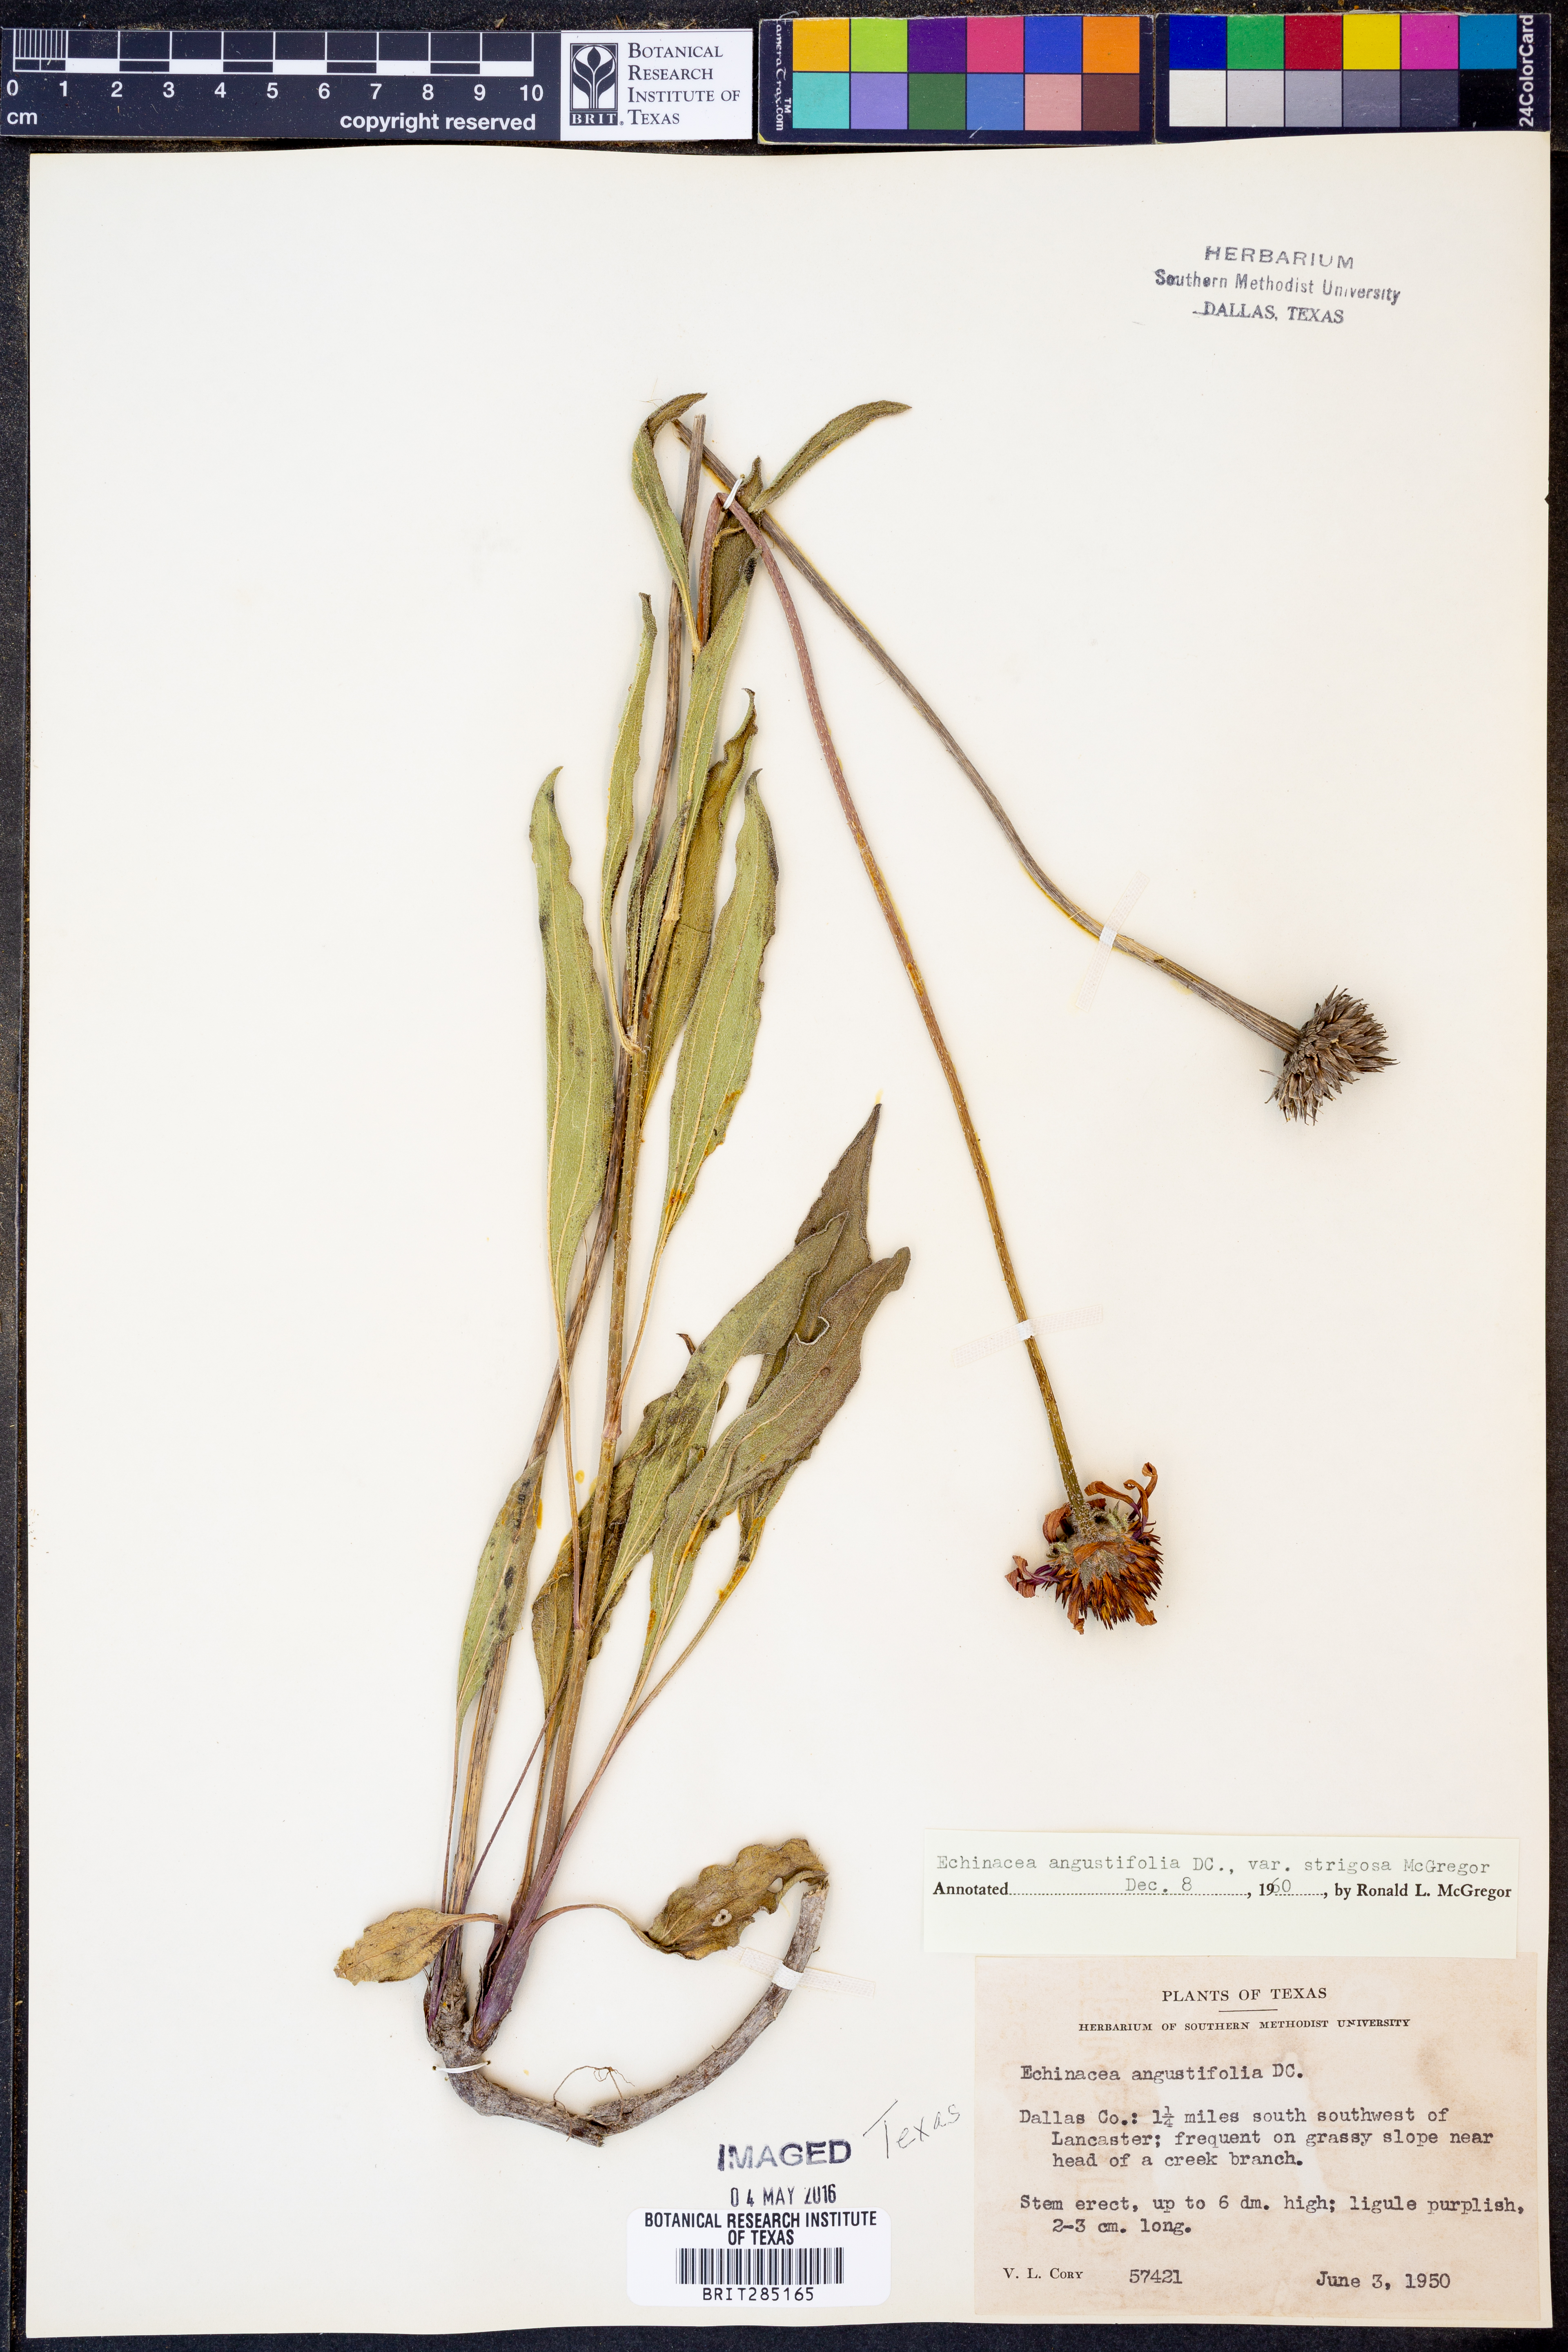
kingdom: Plantae
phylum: Tracheophyta
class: Magnoliopsida
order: Asterales
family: Asteraceae
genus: Echinacea
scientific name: Echinacea angustifolia
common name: Black-sampson echinacea
